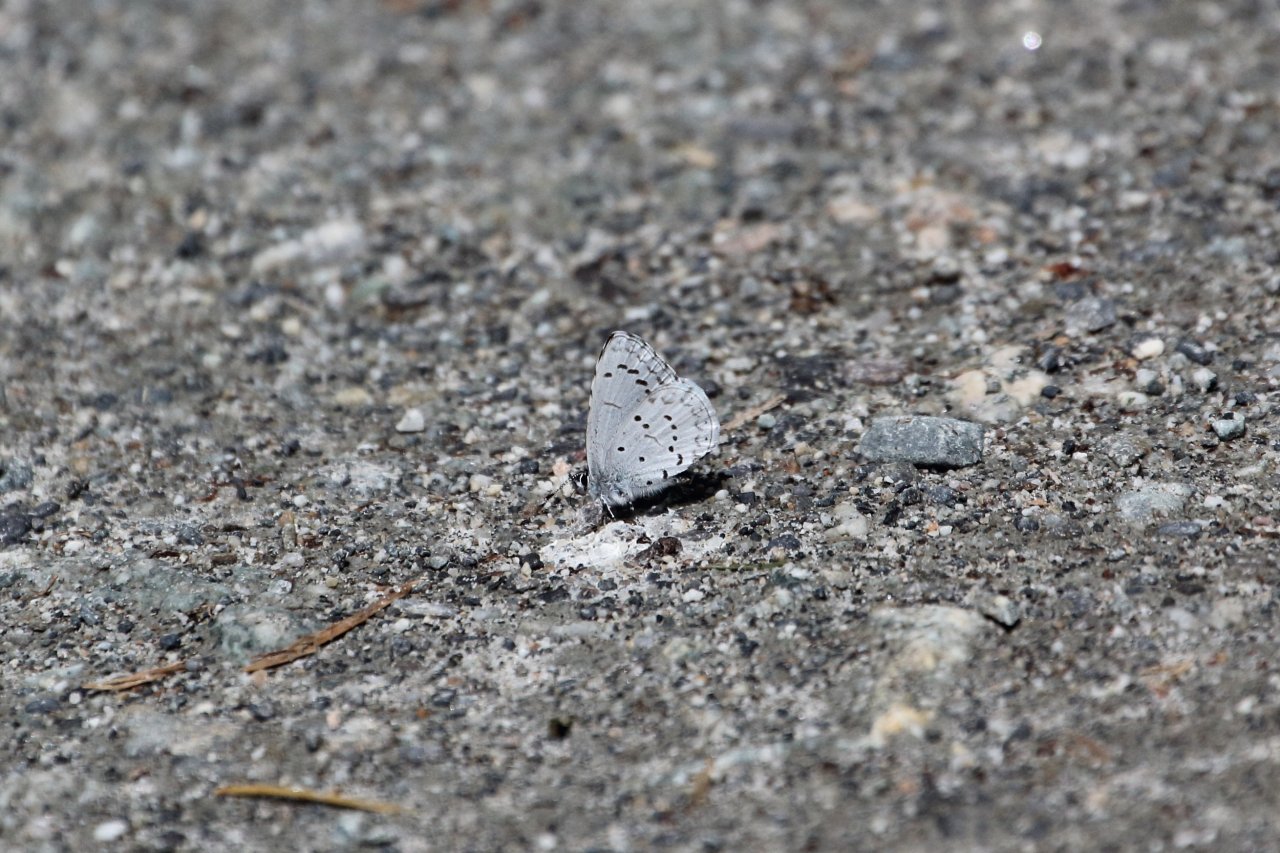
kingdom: Animalia
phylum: Arthropoda
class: Insecta
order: Lepidoptera
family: Lycaenidae
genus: Celastrina
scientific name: Celastrina ladon
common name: Echo Azure
